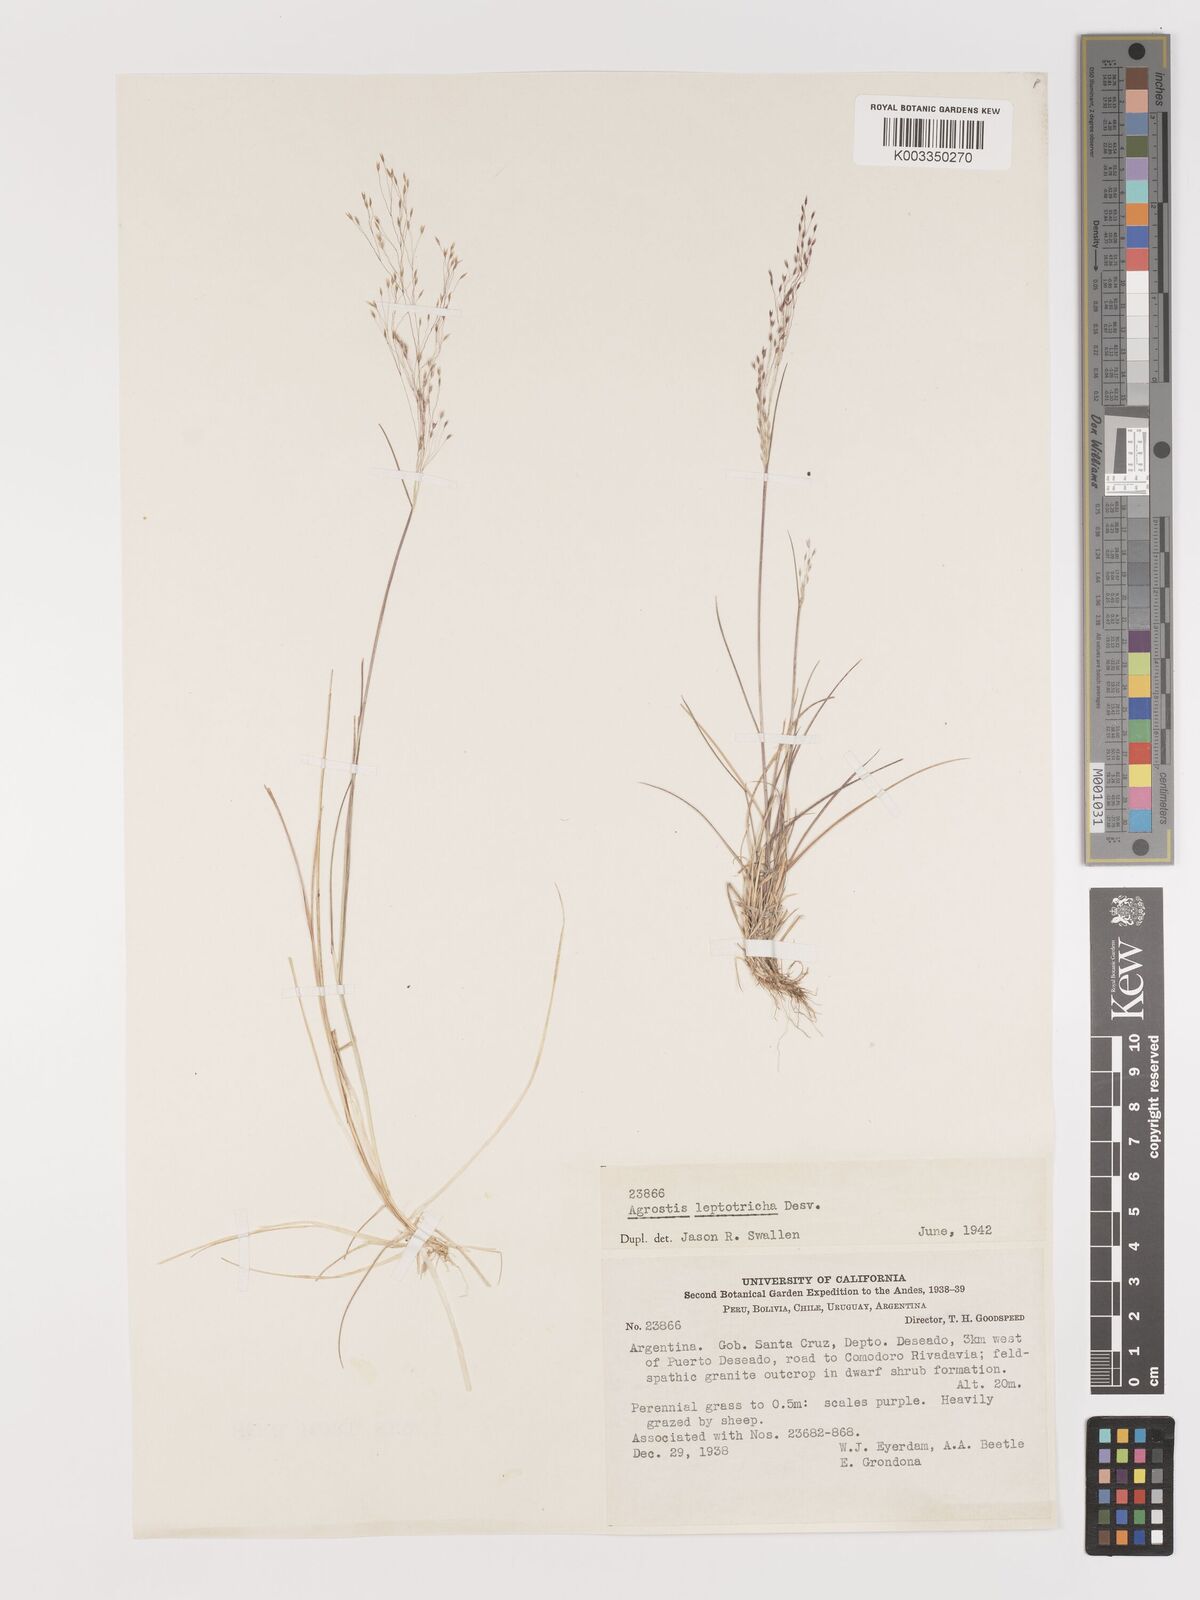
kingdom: Plantae
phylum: Tracheophyta
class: Liliopsida
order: Poales
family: Poaceae
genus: Agrostis
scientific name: Agrostis leptotricha
